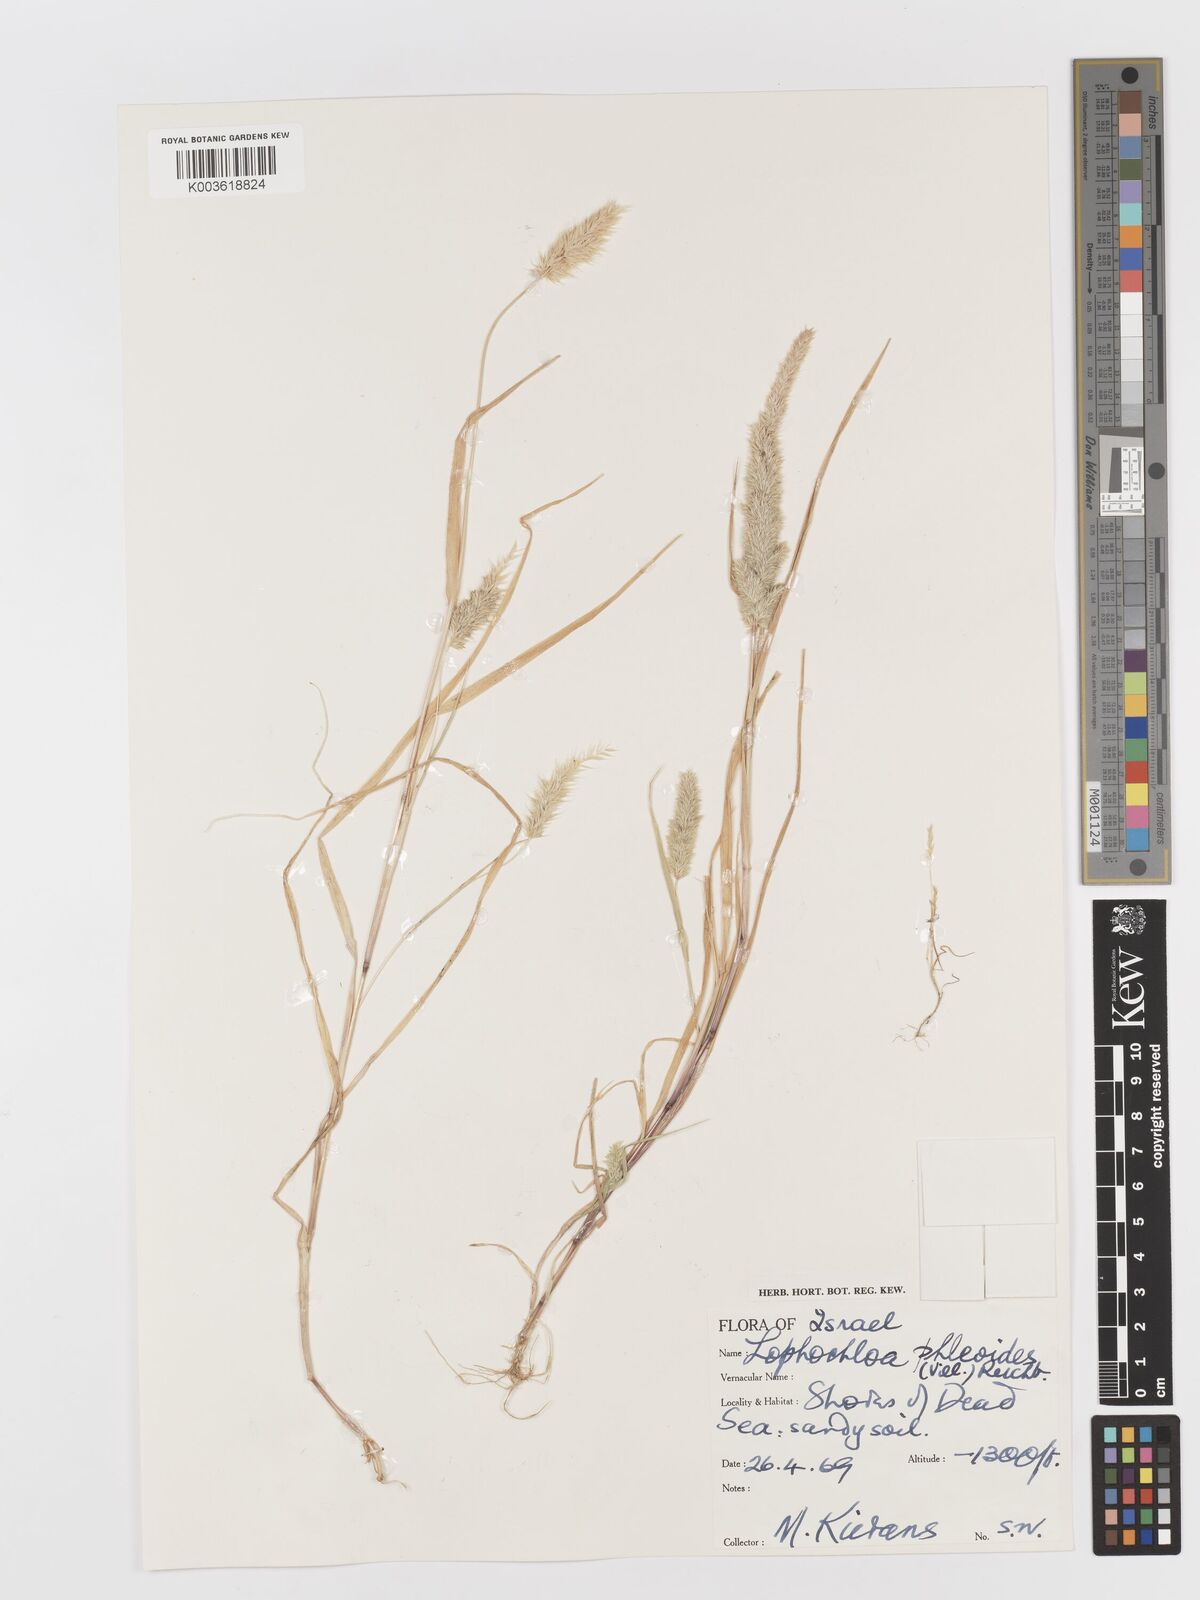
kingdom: Plantae
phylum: Tracheophyta
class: Liliopsida
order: Poales
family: Poaceae
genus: Rostraria
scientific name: Rostraria cristata
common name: Mediterranean hair-grass
